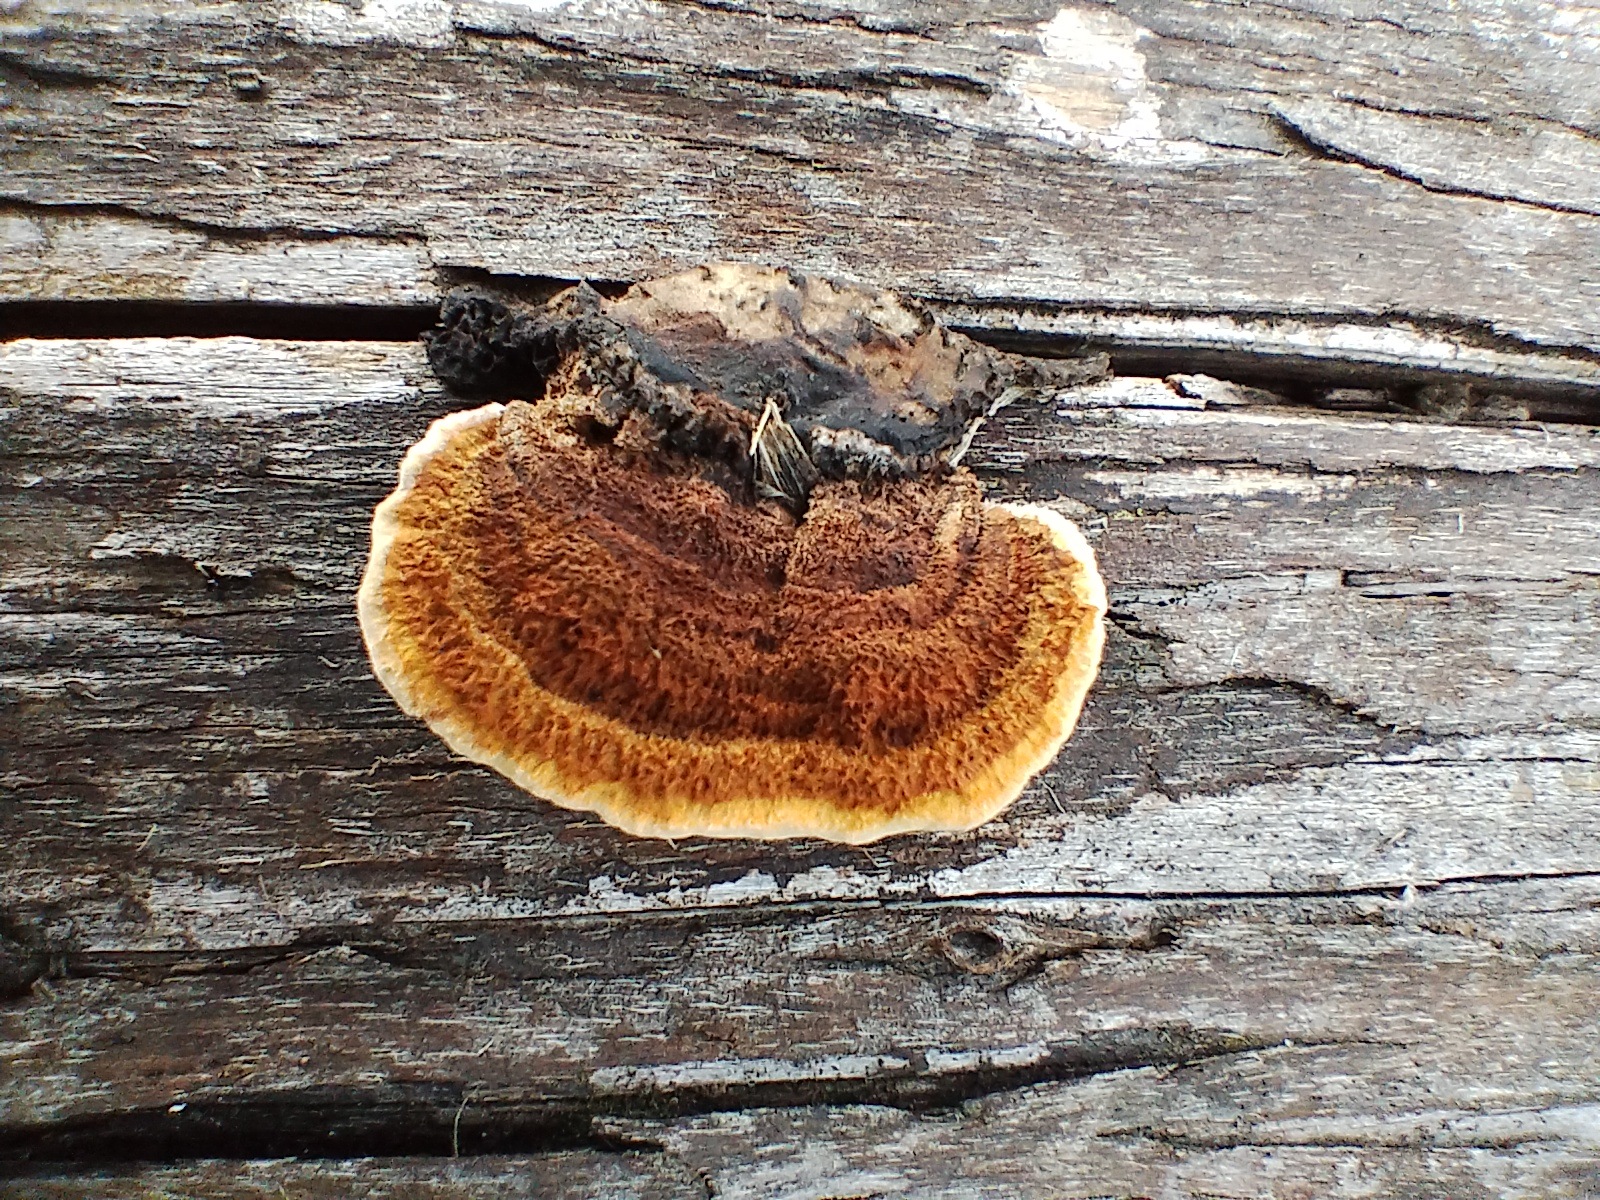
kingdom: Fungi
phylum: Basidiomycota
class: Agaricomycetes
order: Gloeophyllales
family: Gloeophyllaceae
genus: Gloeophyllum
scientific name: Gloeophyllum sepiarium
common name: fyrre-korkhat
